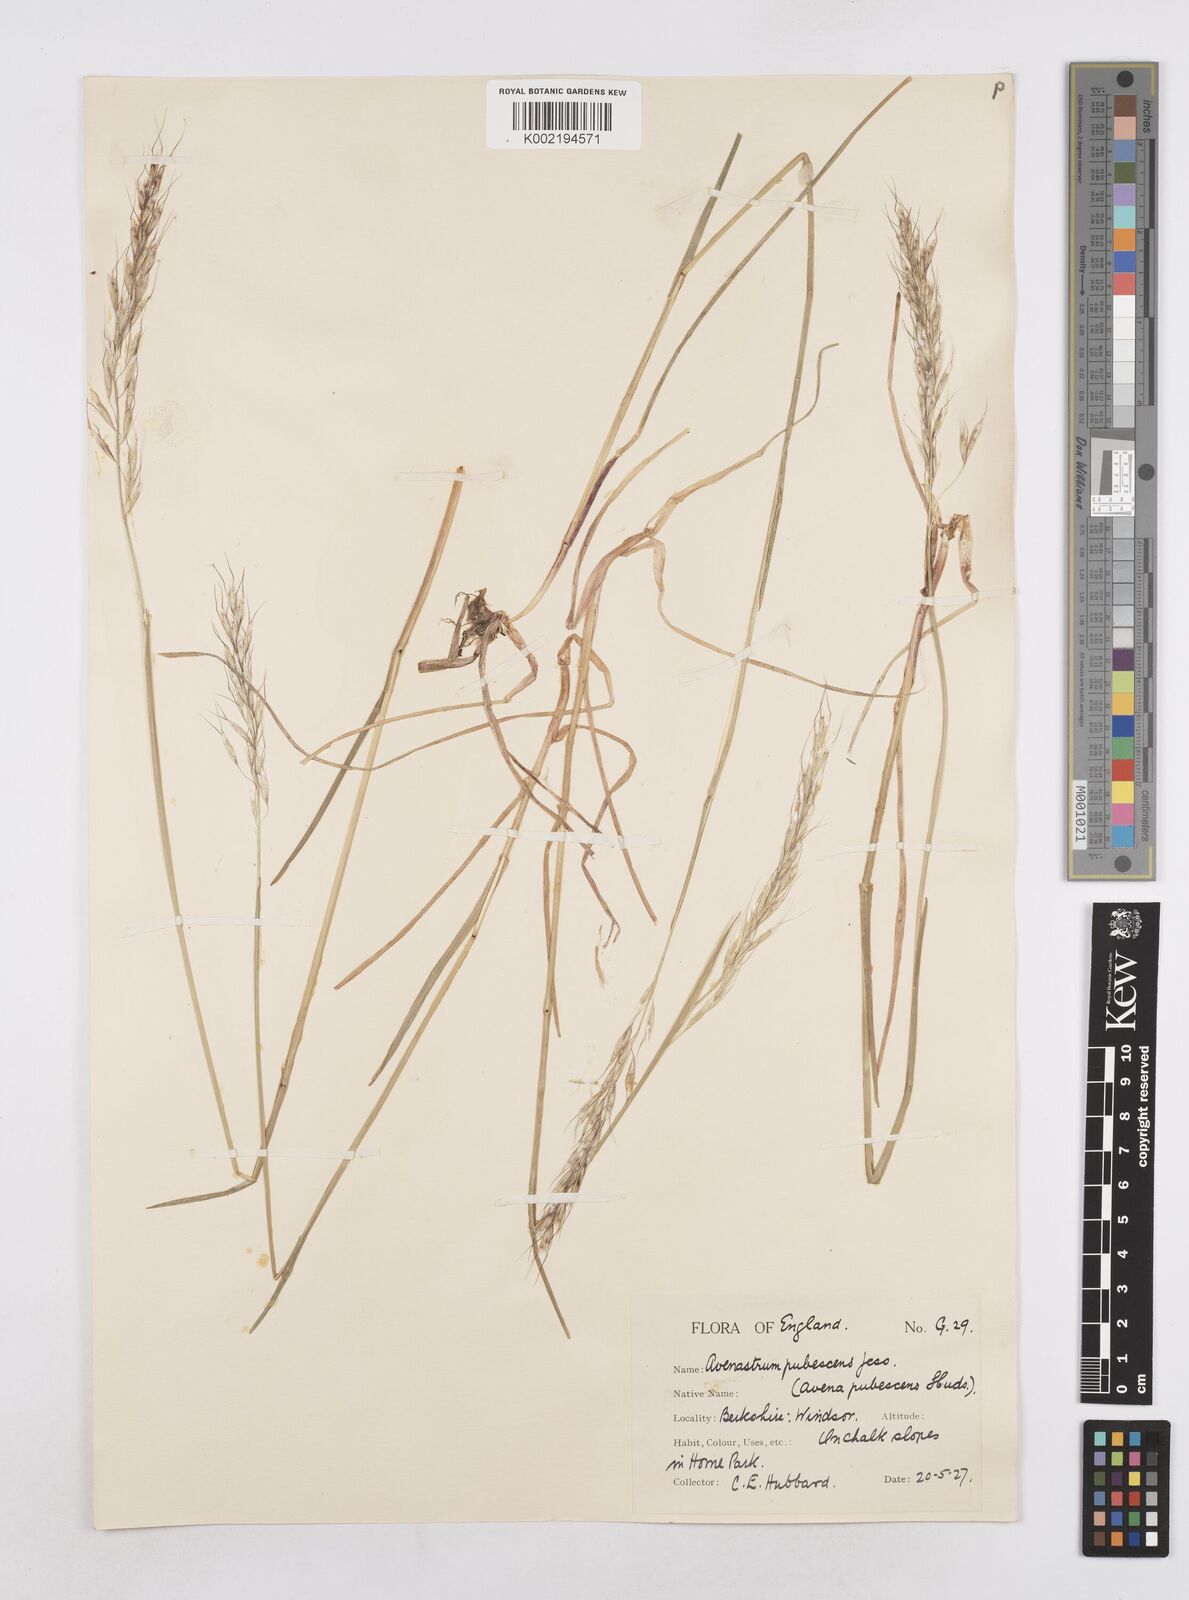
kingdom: Plantae
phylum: Tracheophyta
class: Liliopsida
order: Poales
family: Poaceae
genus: Avenula
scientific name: Avenula pubescens
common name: Downy alpine oatgrass
